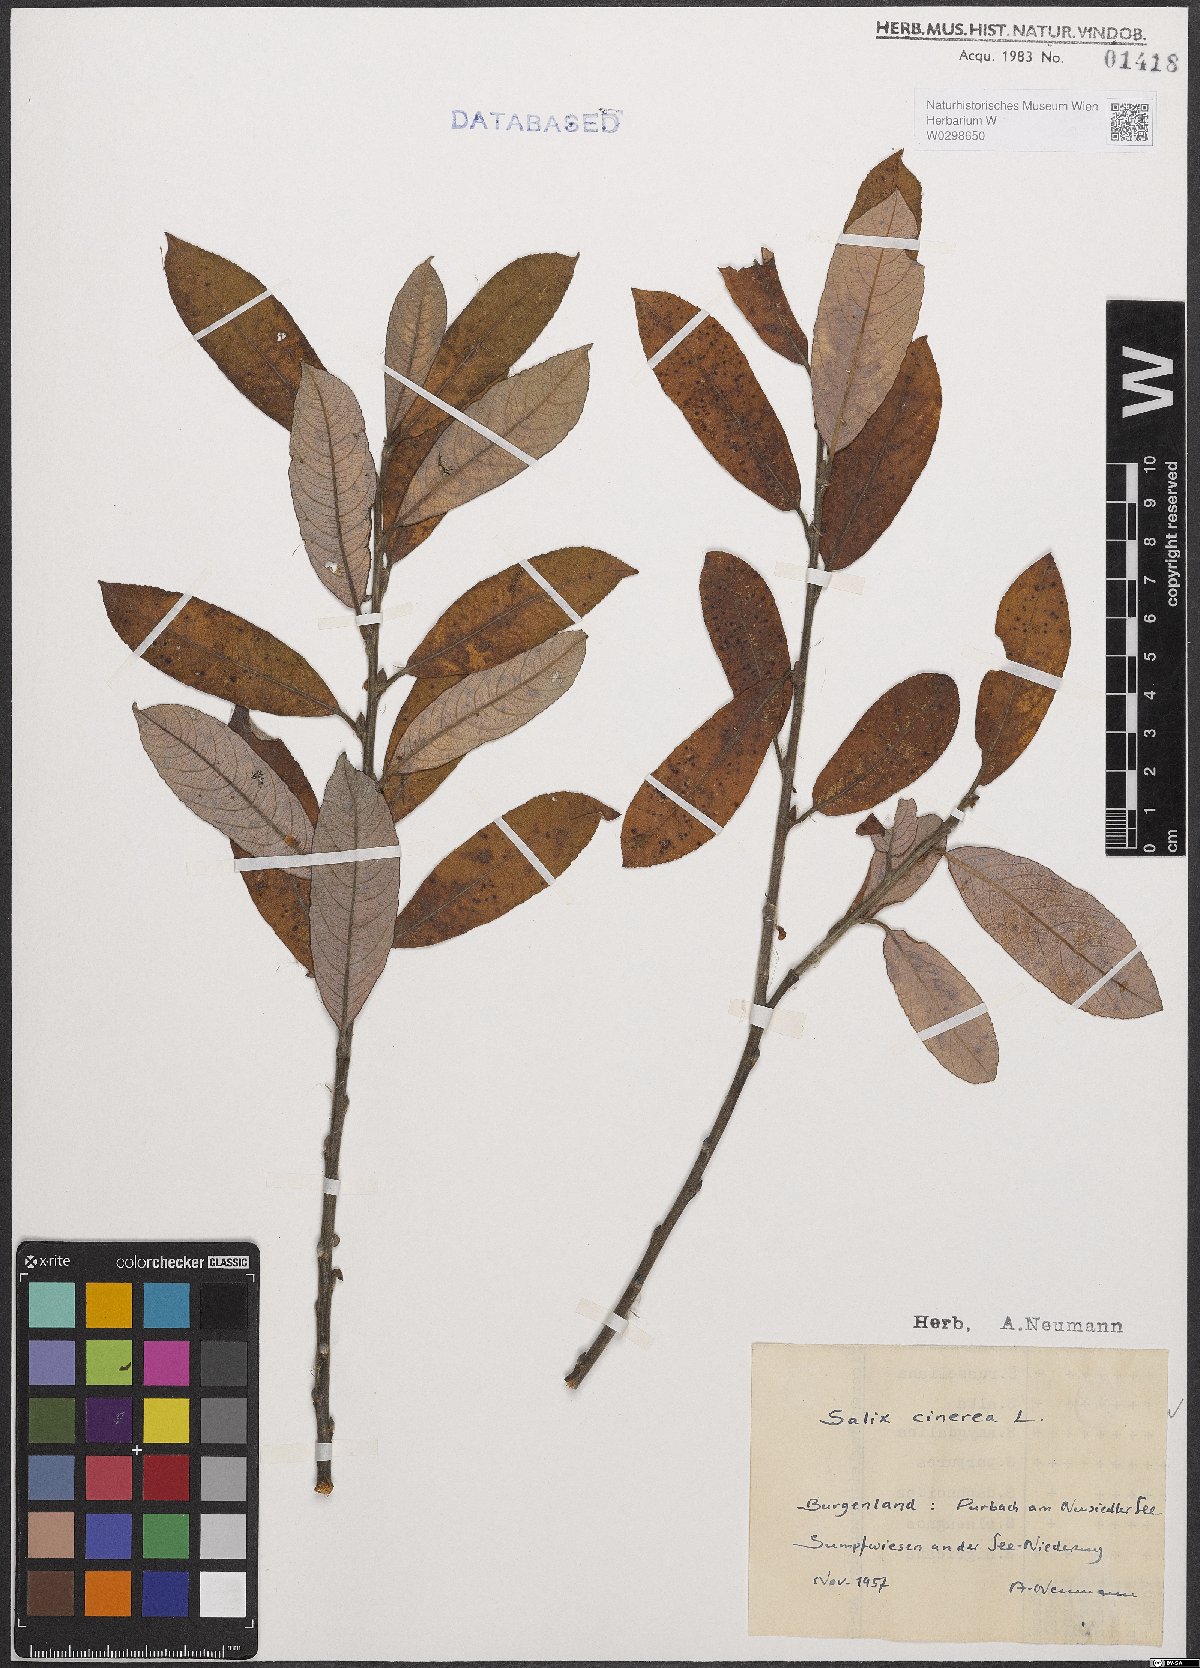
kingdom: Plantae
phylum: Tracheophyta
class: Magnoliopsida
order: Malpighiales
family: Salicaceae
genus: Salix
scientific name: Salix cinerea
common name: Common sallow
